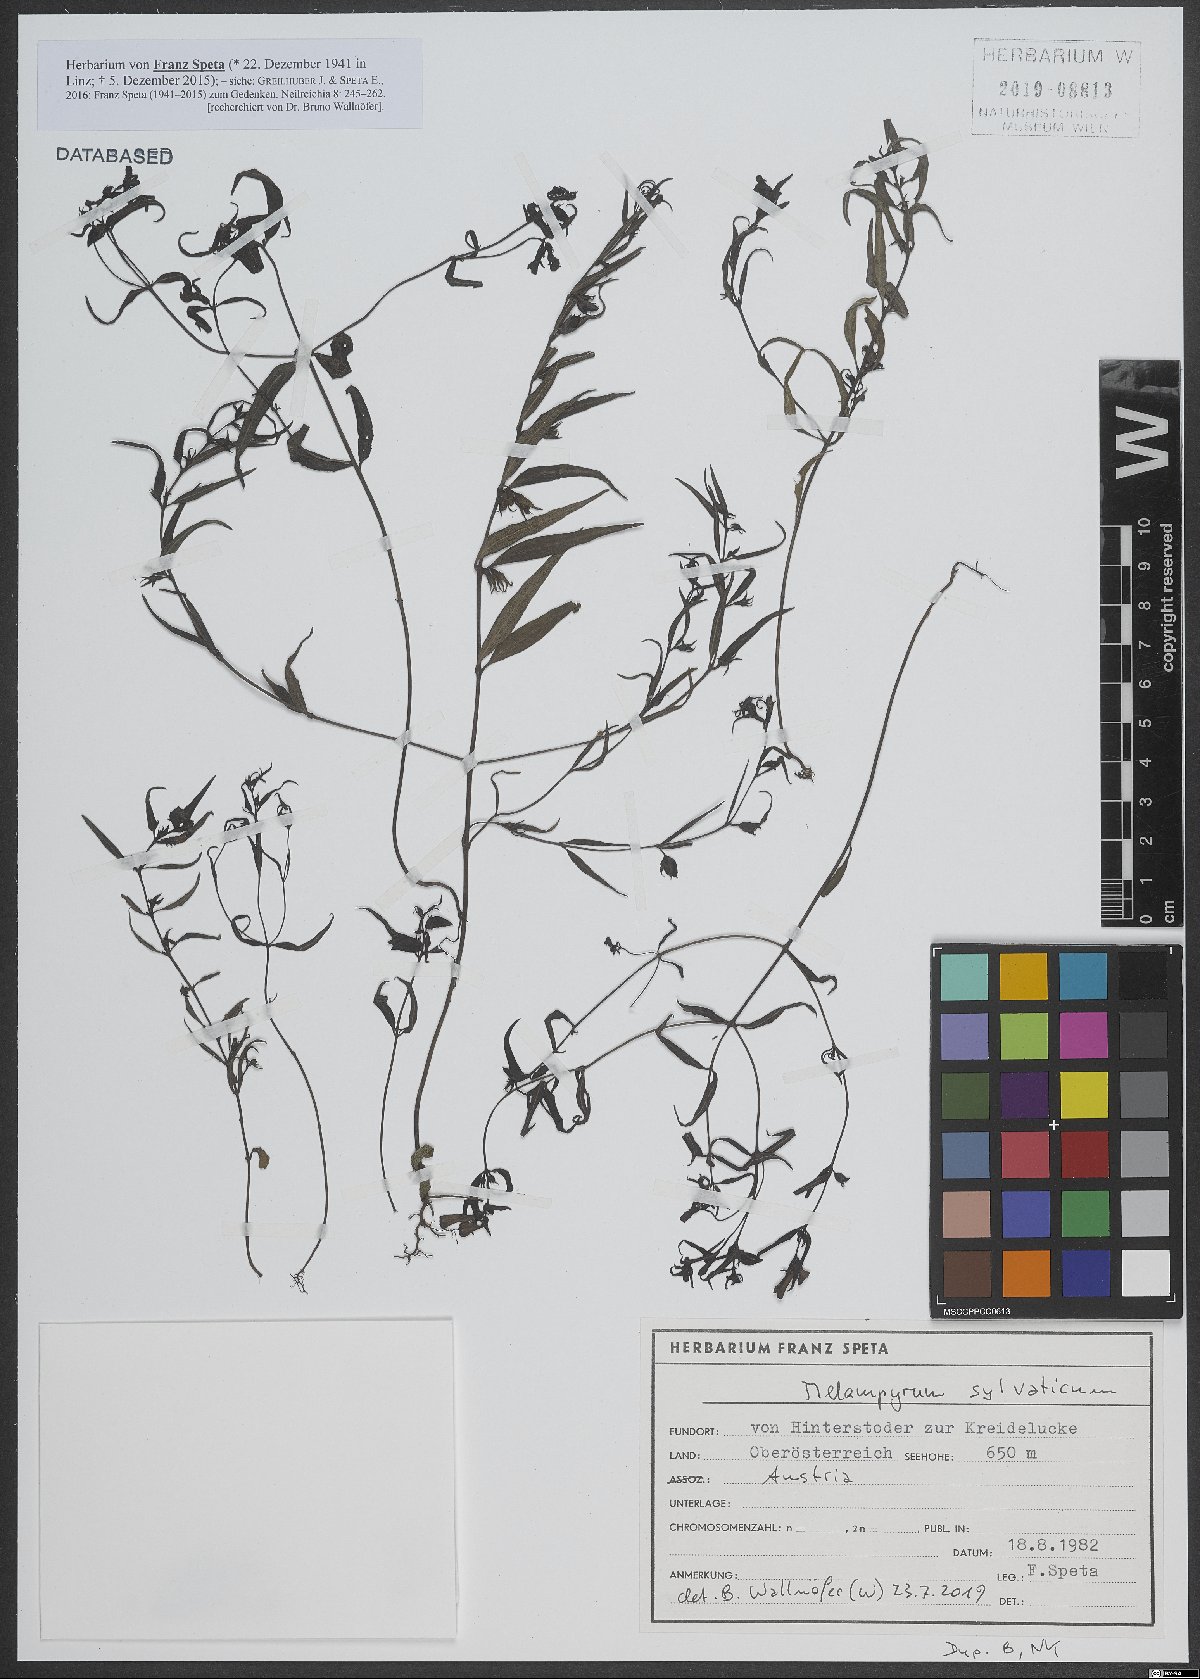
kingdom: Plantae
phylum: Tracheophyta
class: Magnoliopsida
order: Lamiales
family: Orobanchaceae
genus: Melampyrum
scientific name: Melampyrum sylvaticum
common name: Small cow-wheat
